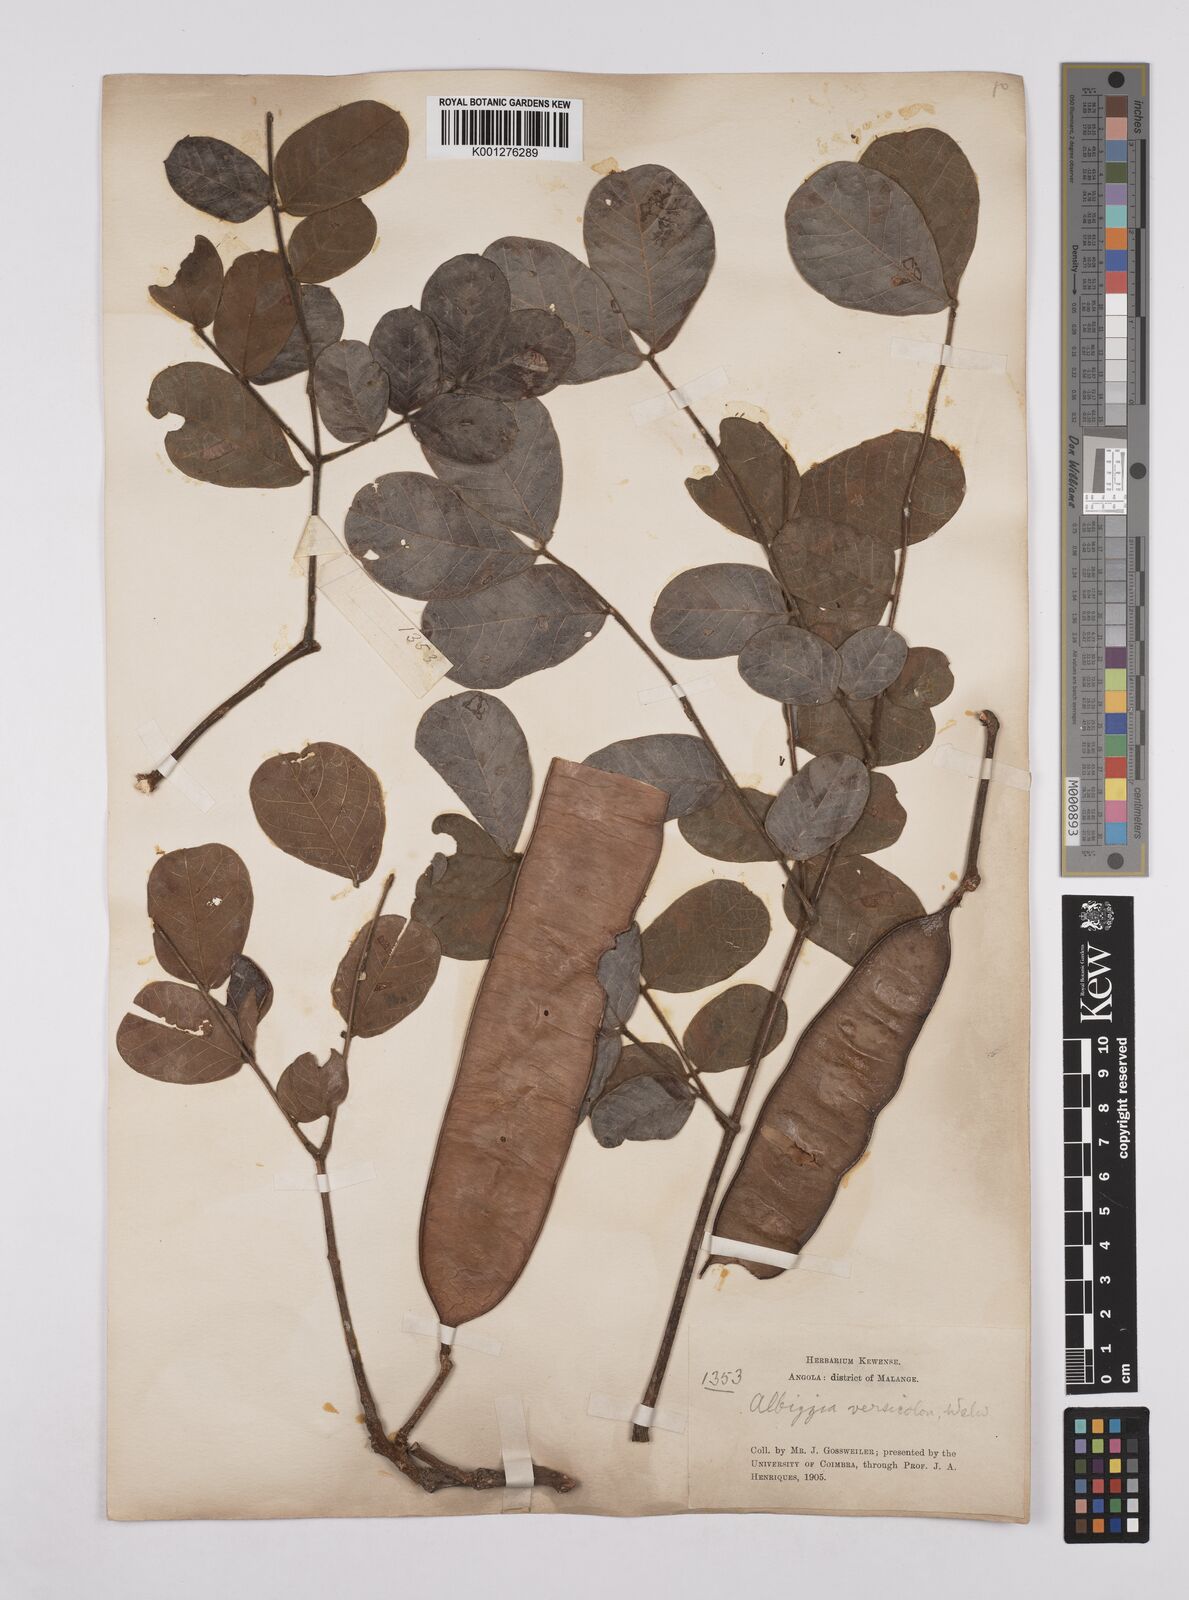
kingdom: Plantae
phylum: Tracheophyta
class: Magnoliopsida
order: Fabales
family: Fabaceae
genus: Albizia
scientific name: Albizia versicolor
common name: Poisonpod
